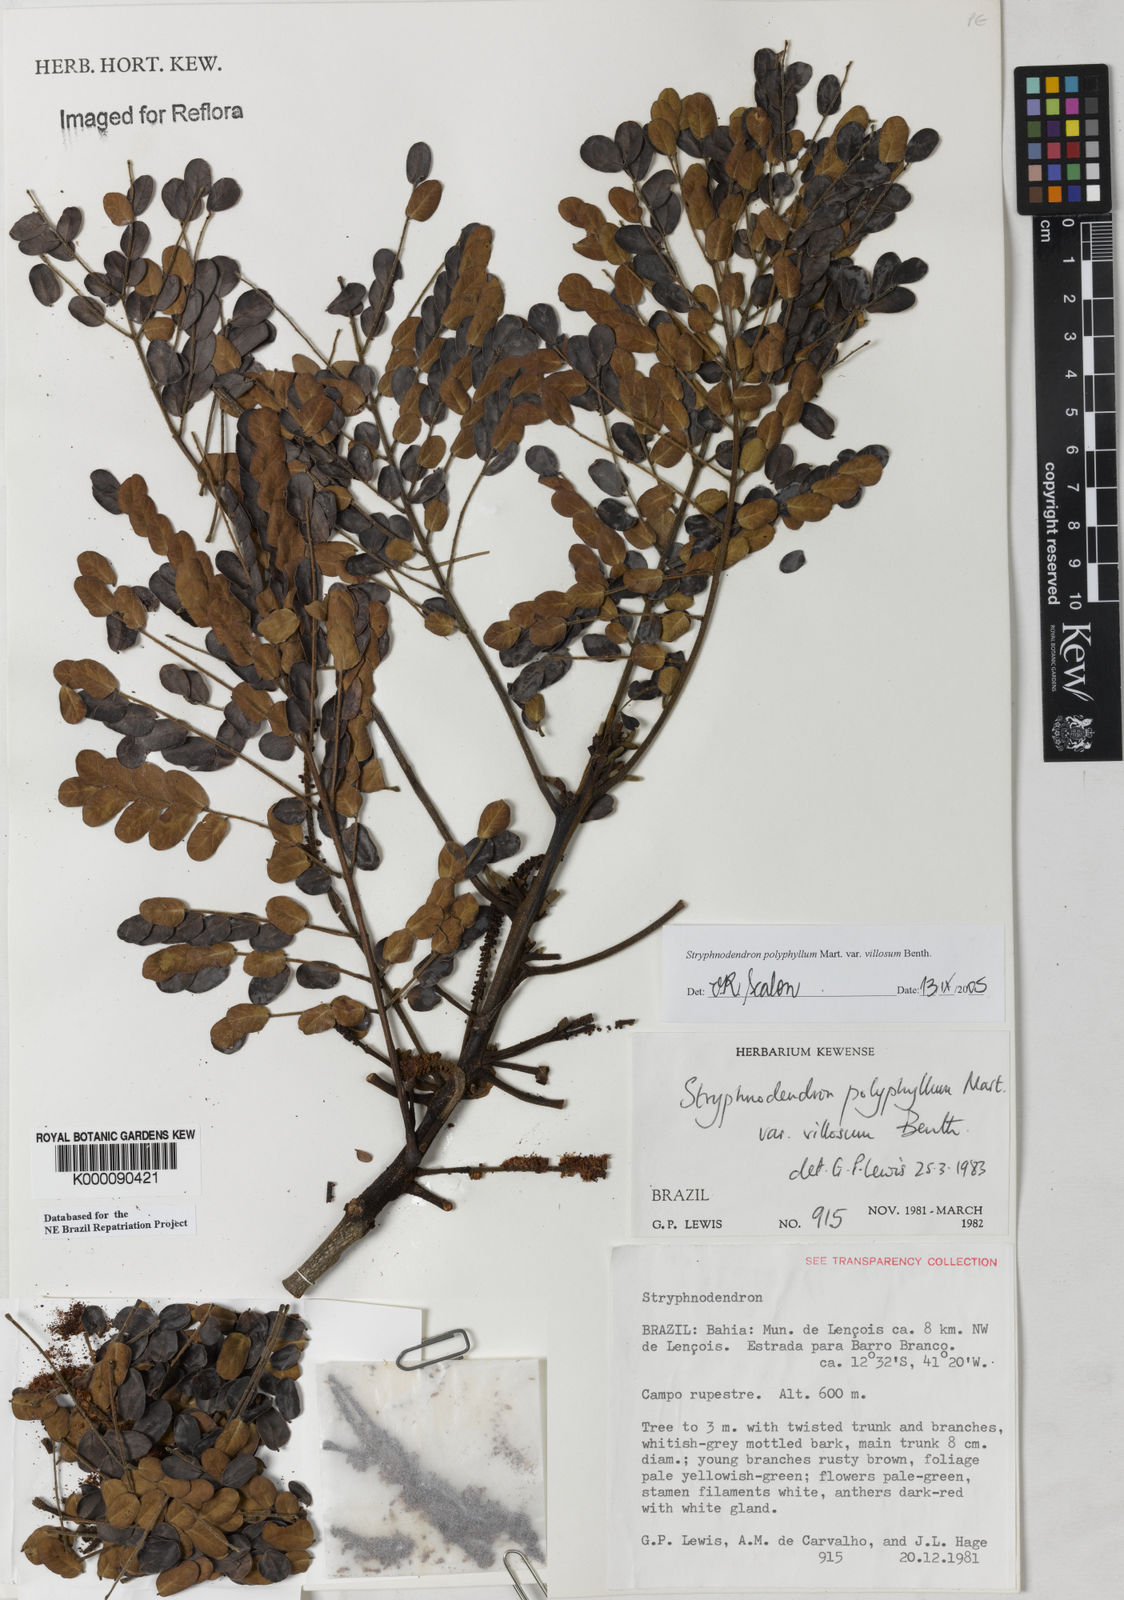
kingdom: Plantae
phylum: Tracheophyta
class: Magnoliopsida
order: Fabales
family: Fabaceae
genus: Stryphnodendron
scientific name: Stryphnodendron polyphyllum
